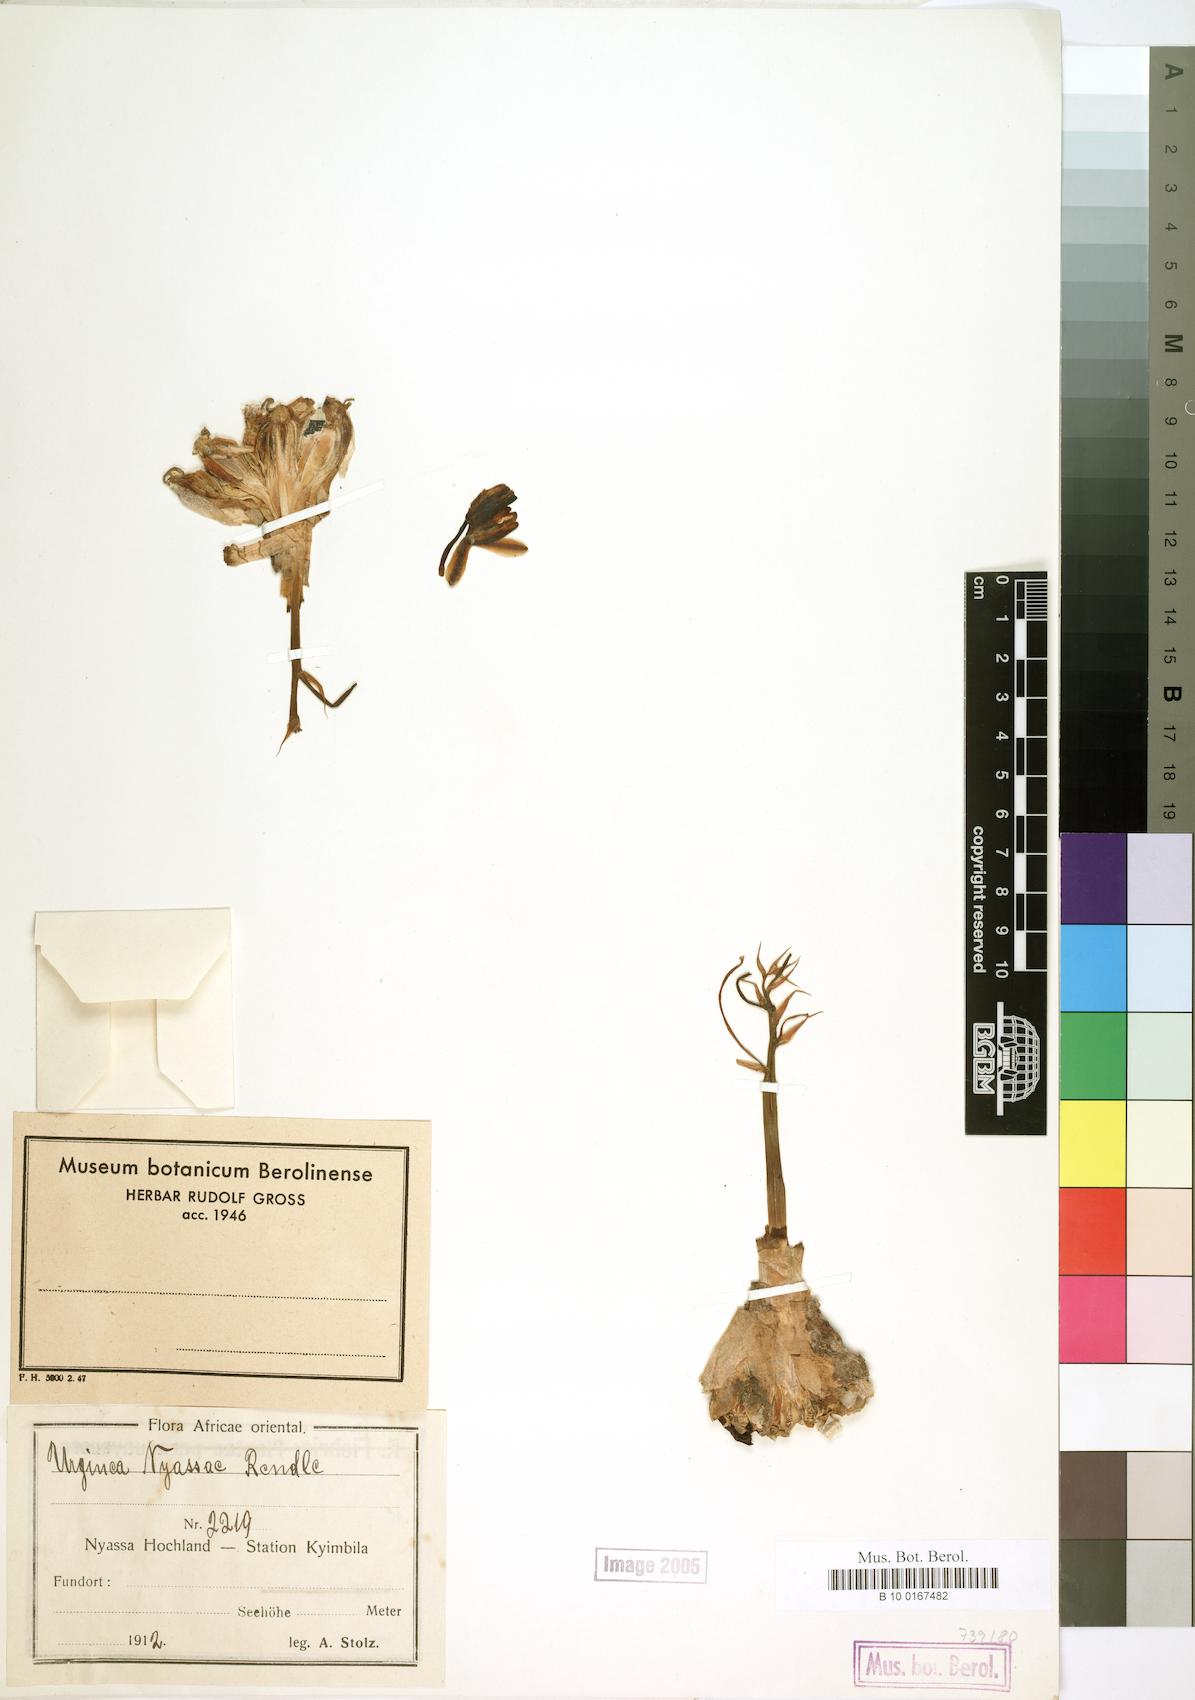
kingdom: Plantae
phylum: Tracheophyta
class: Liliopsida
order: Asparagales
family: Asparagaceae
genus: Drimia
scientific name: Drimia Urginea nyasae
